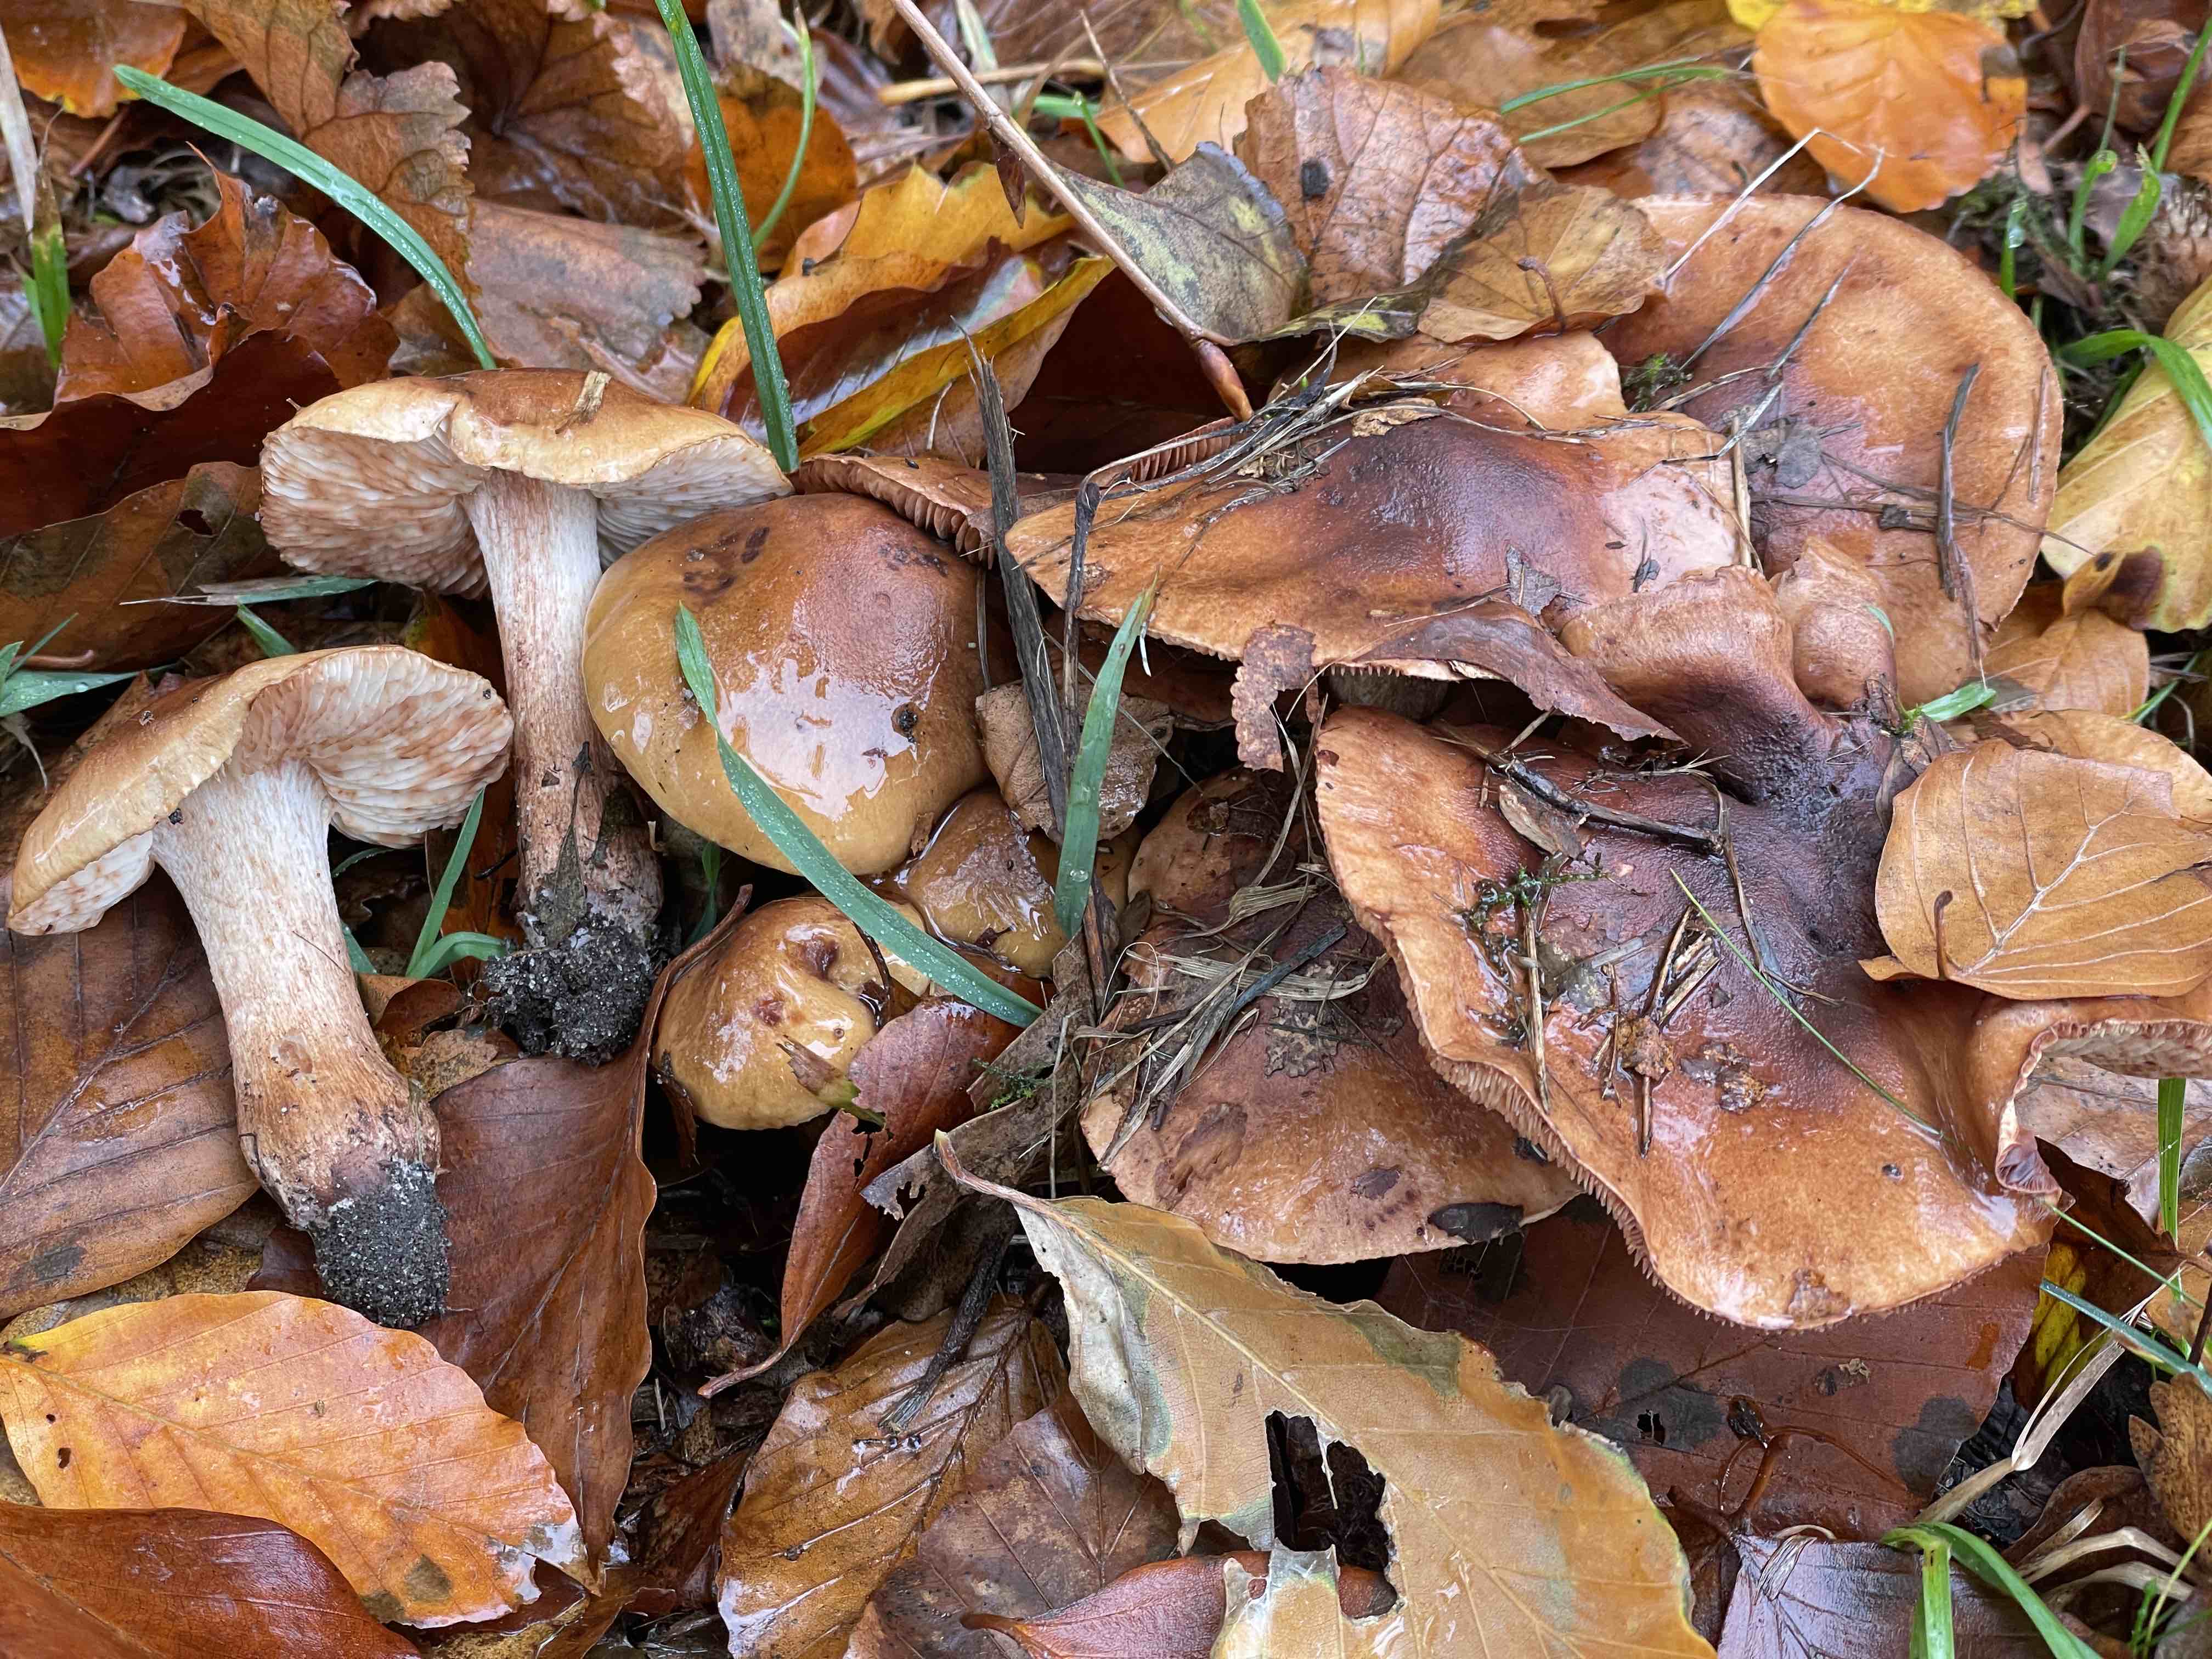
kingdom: Fungi
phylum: Basidiomycota
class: Agaricomycetes
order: Agaricales
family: Tricholomataceae
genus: Tricholoma
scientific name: Tricholoma ustale
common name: sveden ridderhat
